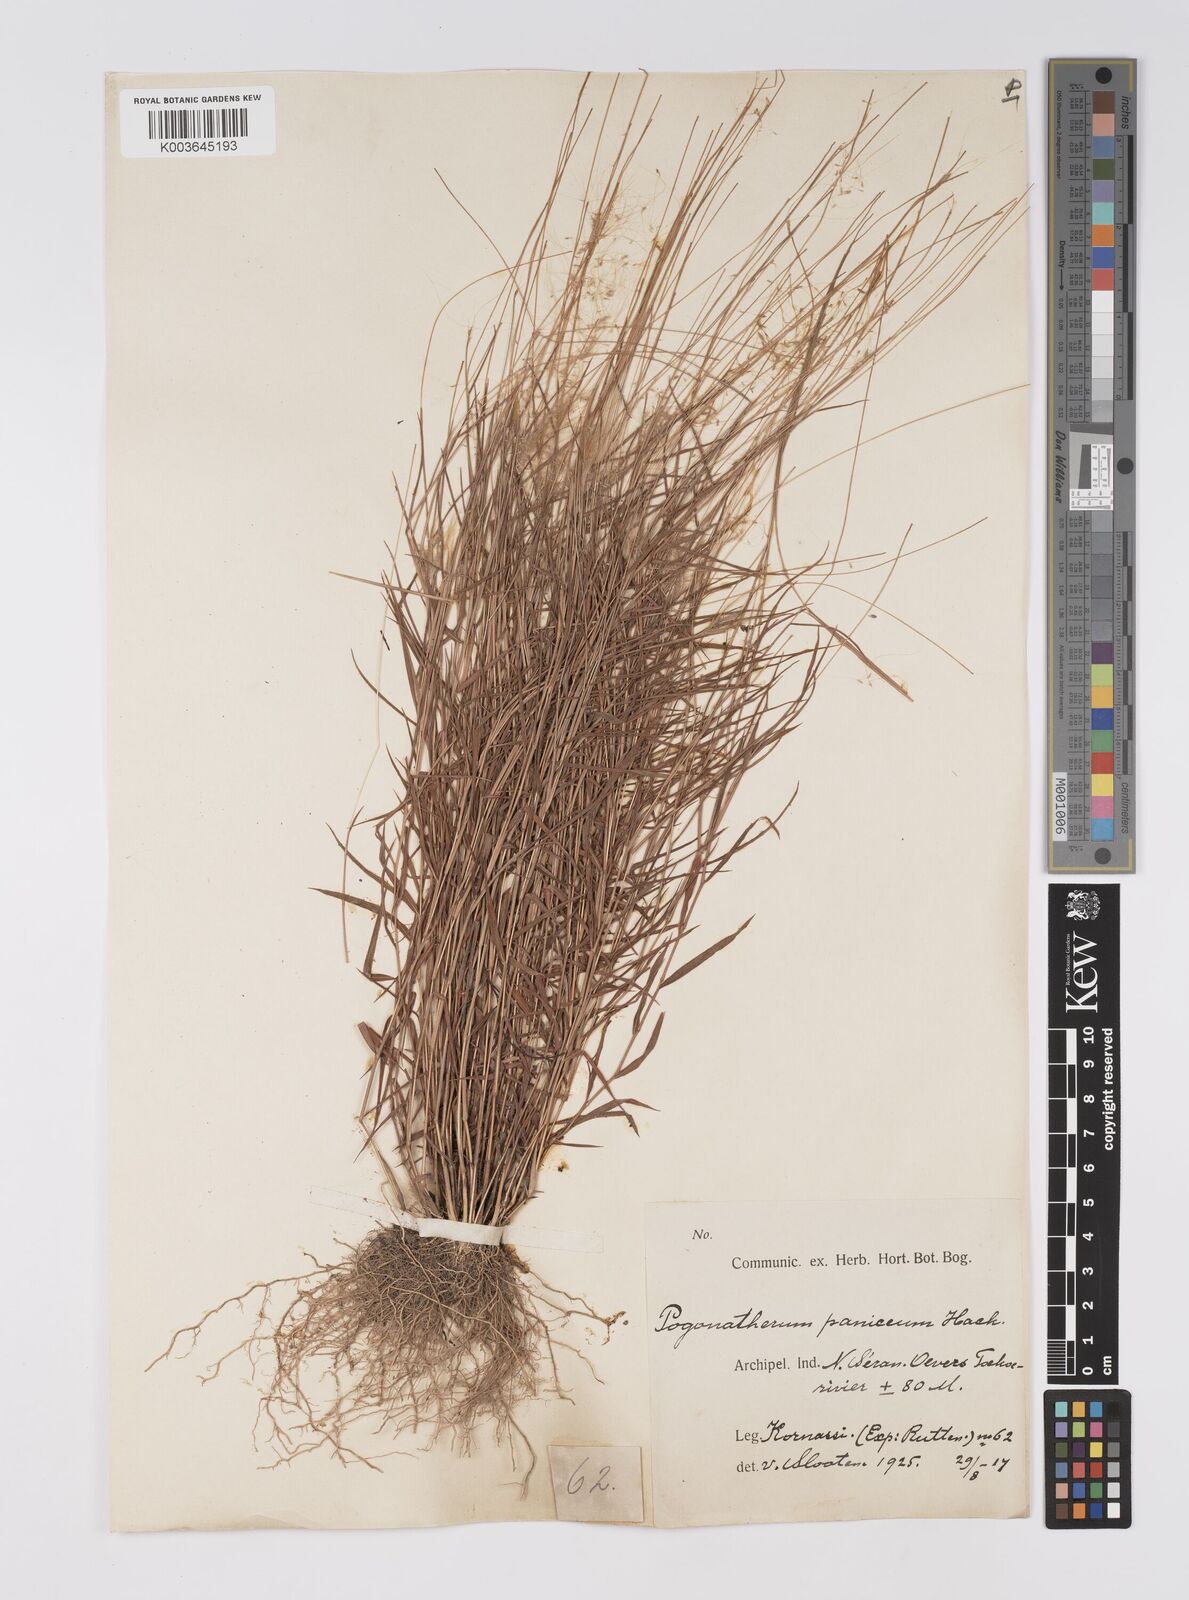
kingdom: Plantae
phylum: Tracheophyta
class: Liliopsida
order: Poales
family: Poaceae
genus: Pogonatherum
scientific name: Pogonatherum crinitum
